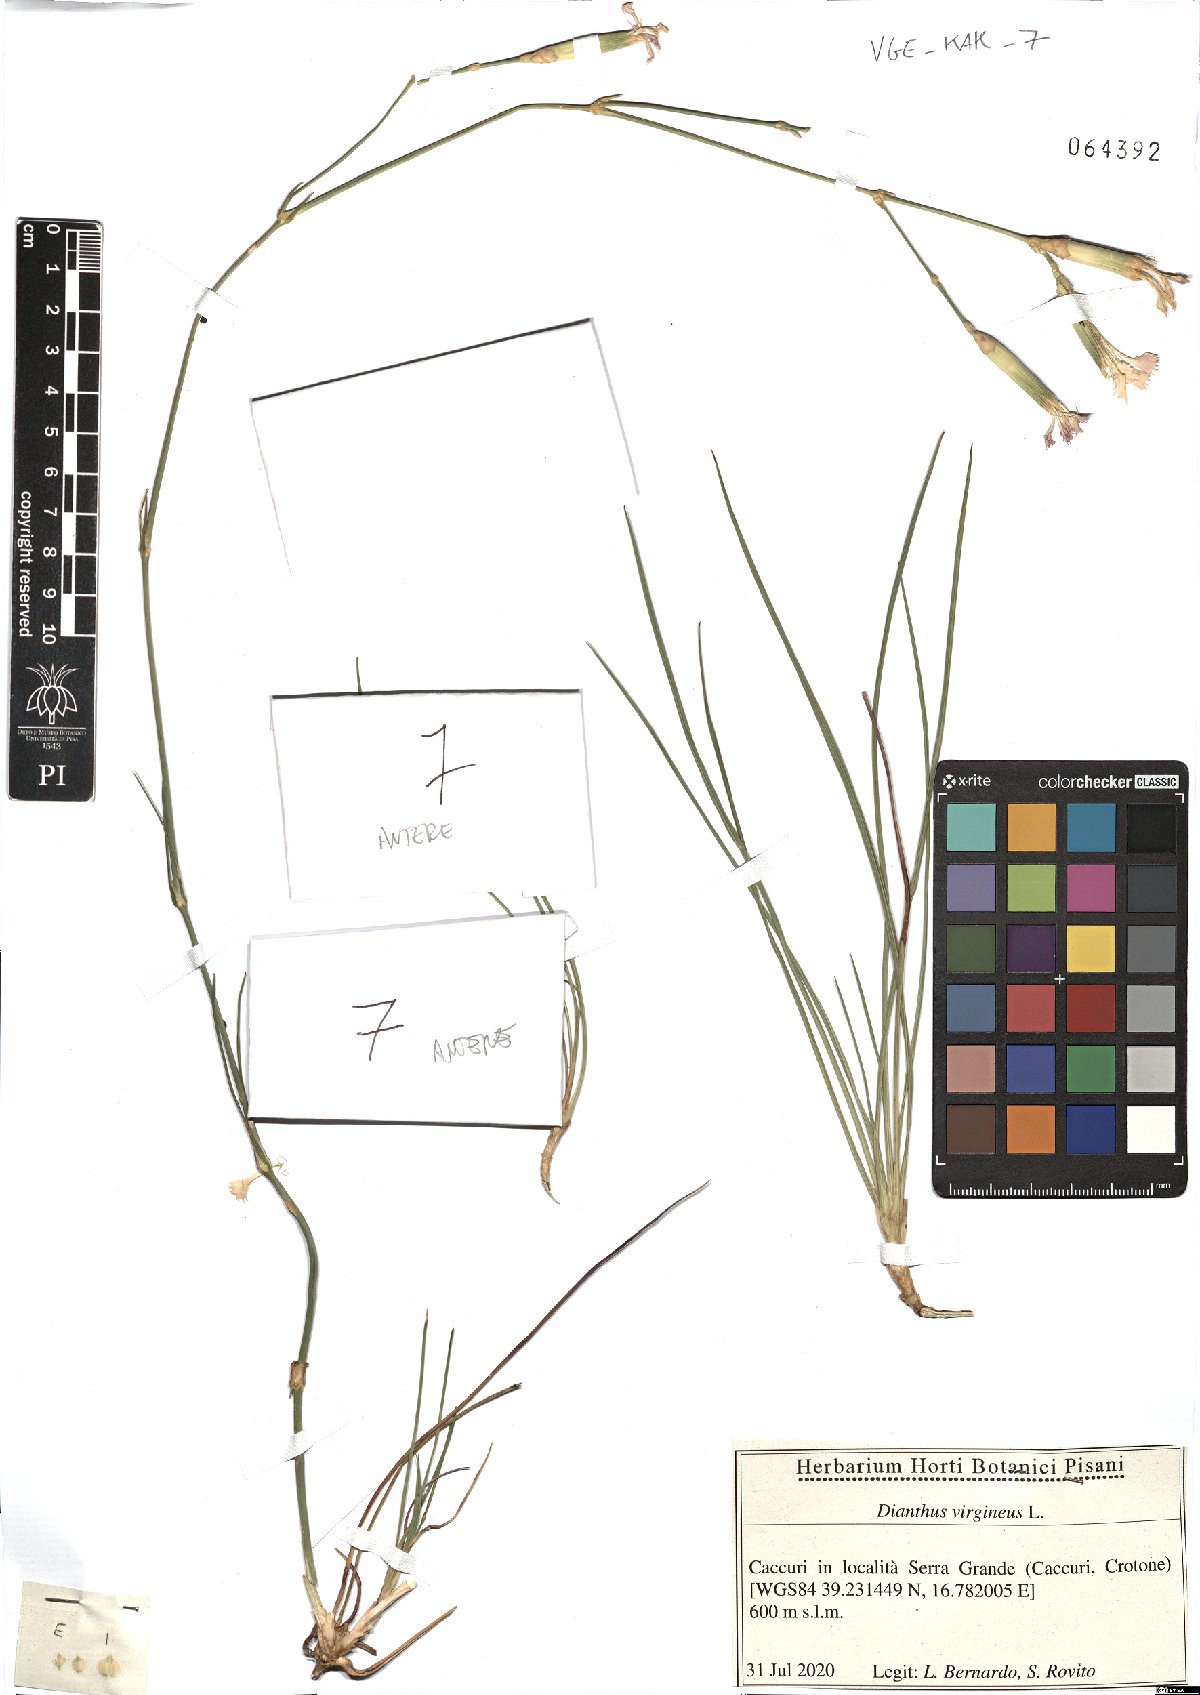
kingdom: Plantae
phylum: Tracheophyta
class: Magnoliopsida
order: Caryophyllales
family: Caryophyllaceae
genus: Dianthus
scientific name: Dianthus virgineus
